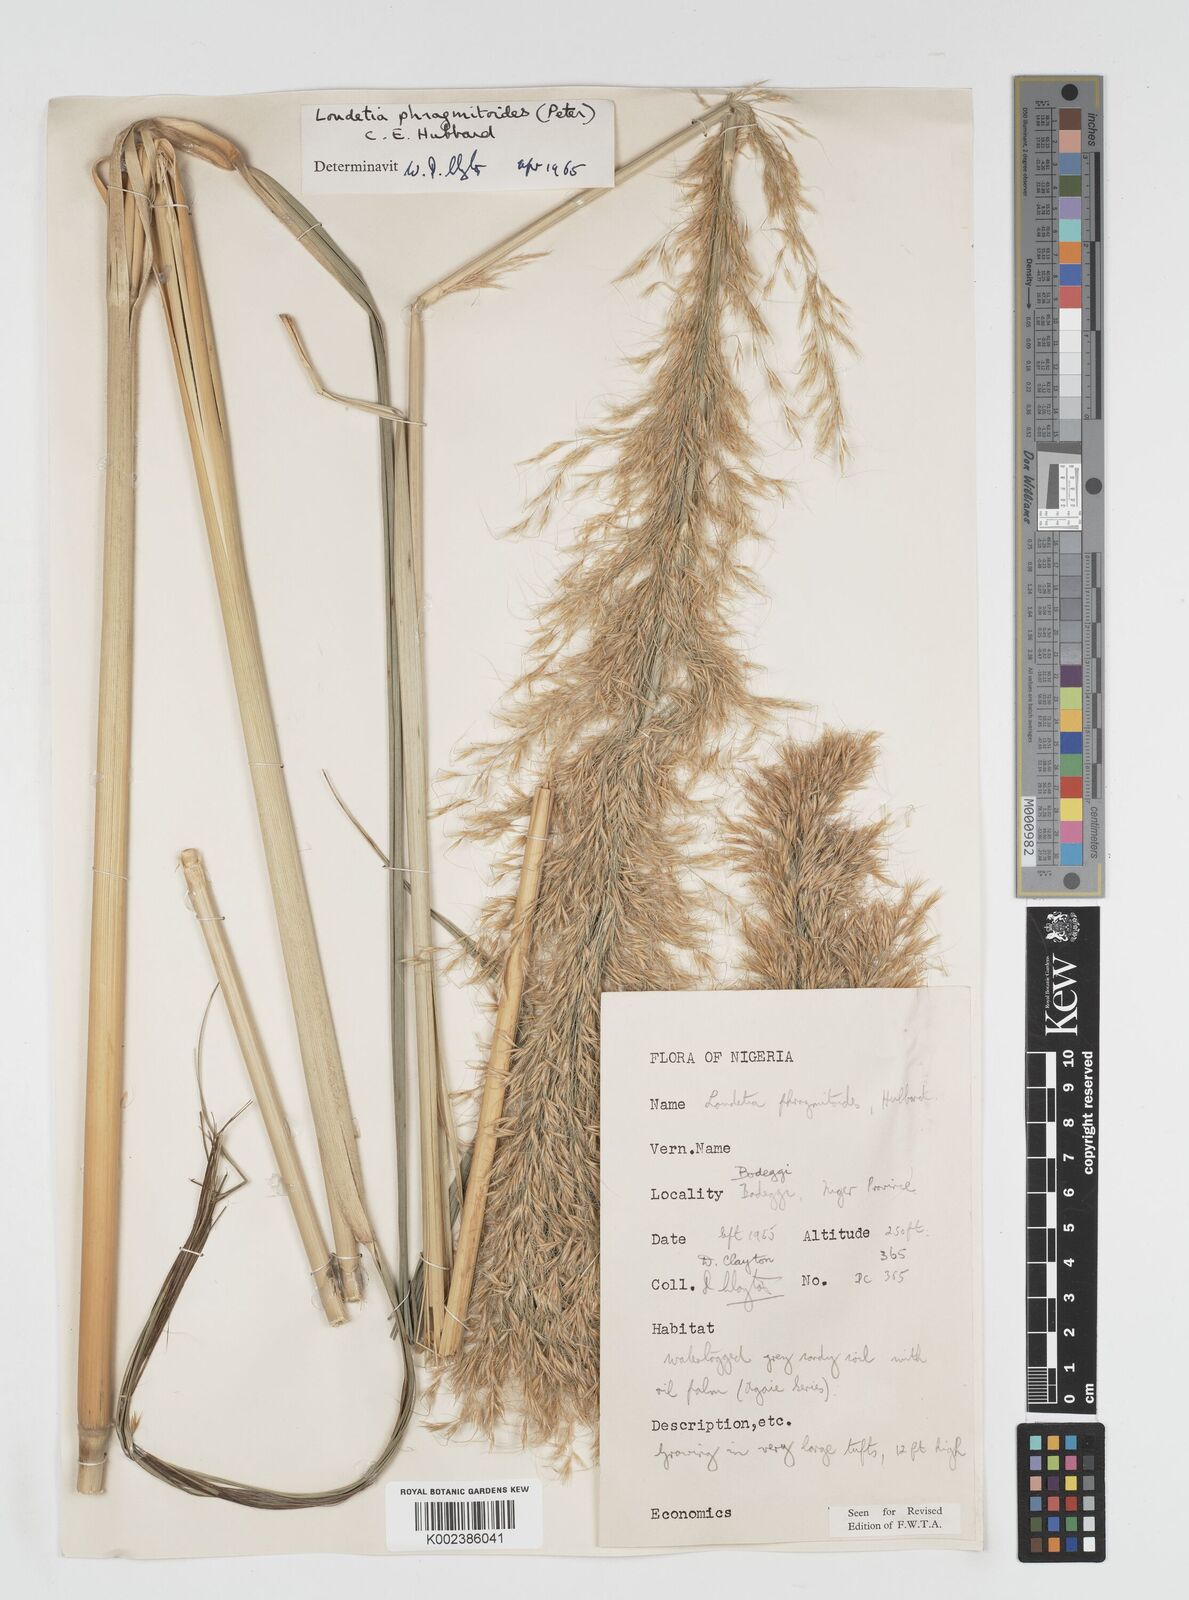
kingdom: Plantae
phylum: Tracheophyta
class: Liliopsida
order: Poales
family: Poaceae
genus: Loudetia
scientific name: Loudetia phragmitoides
